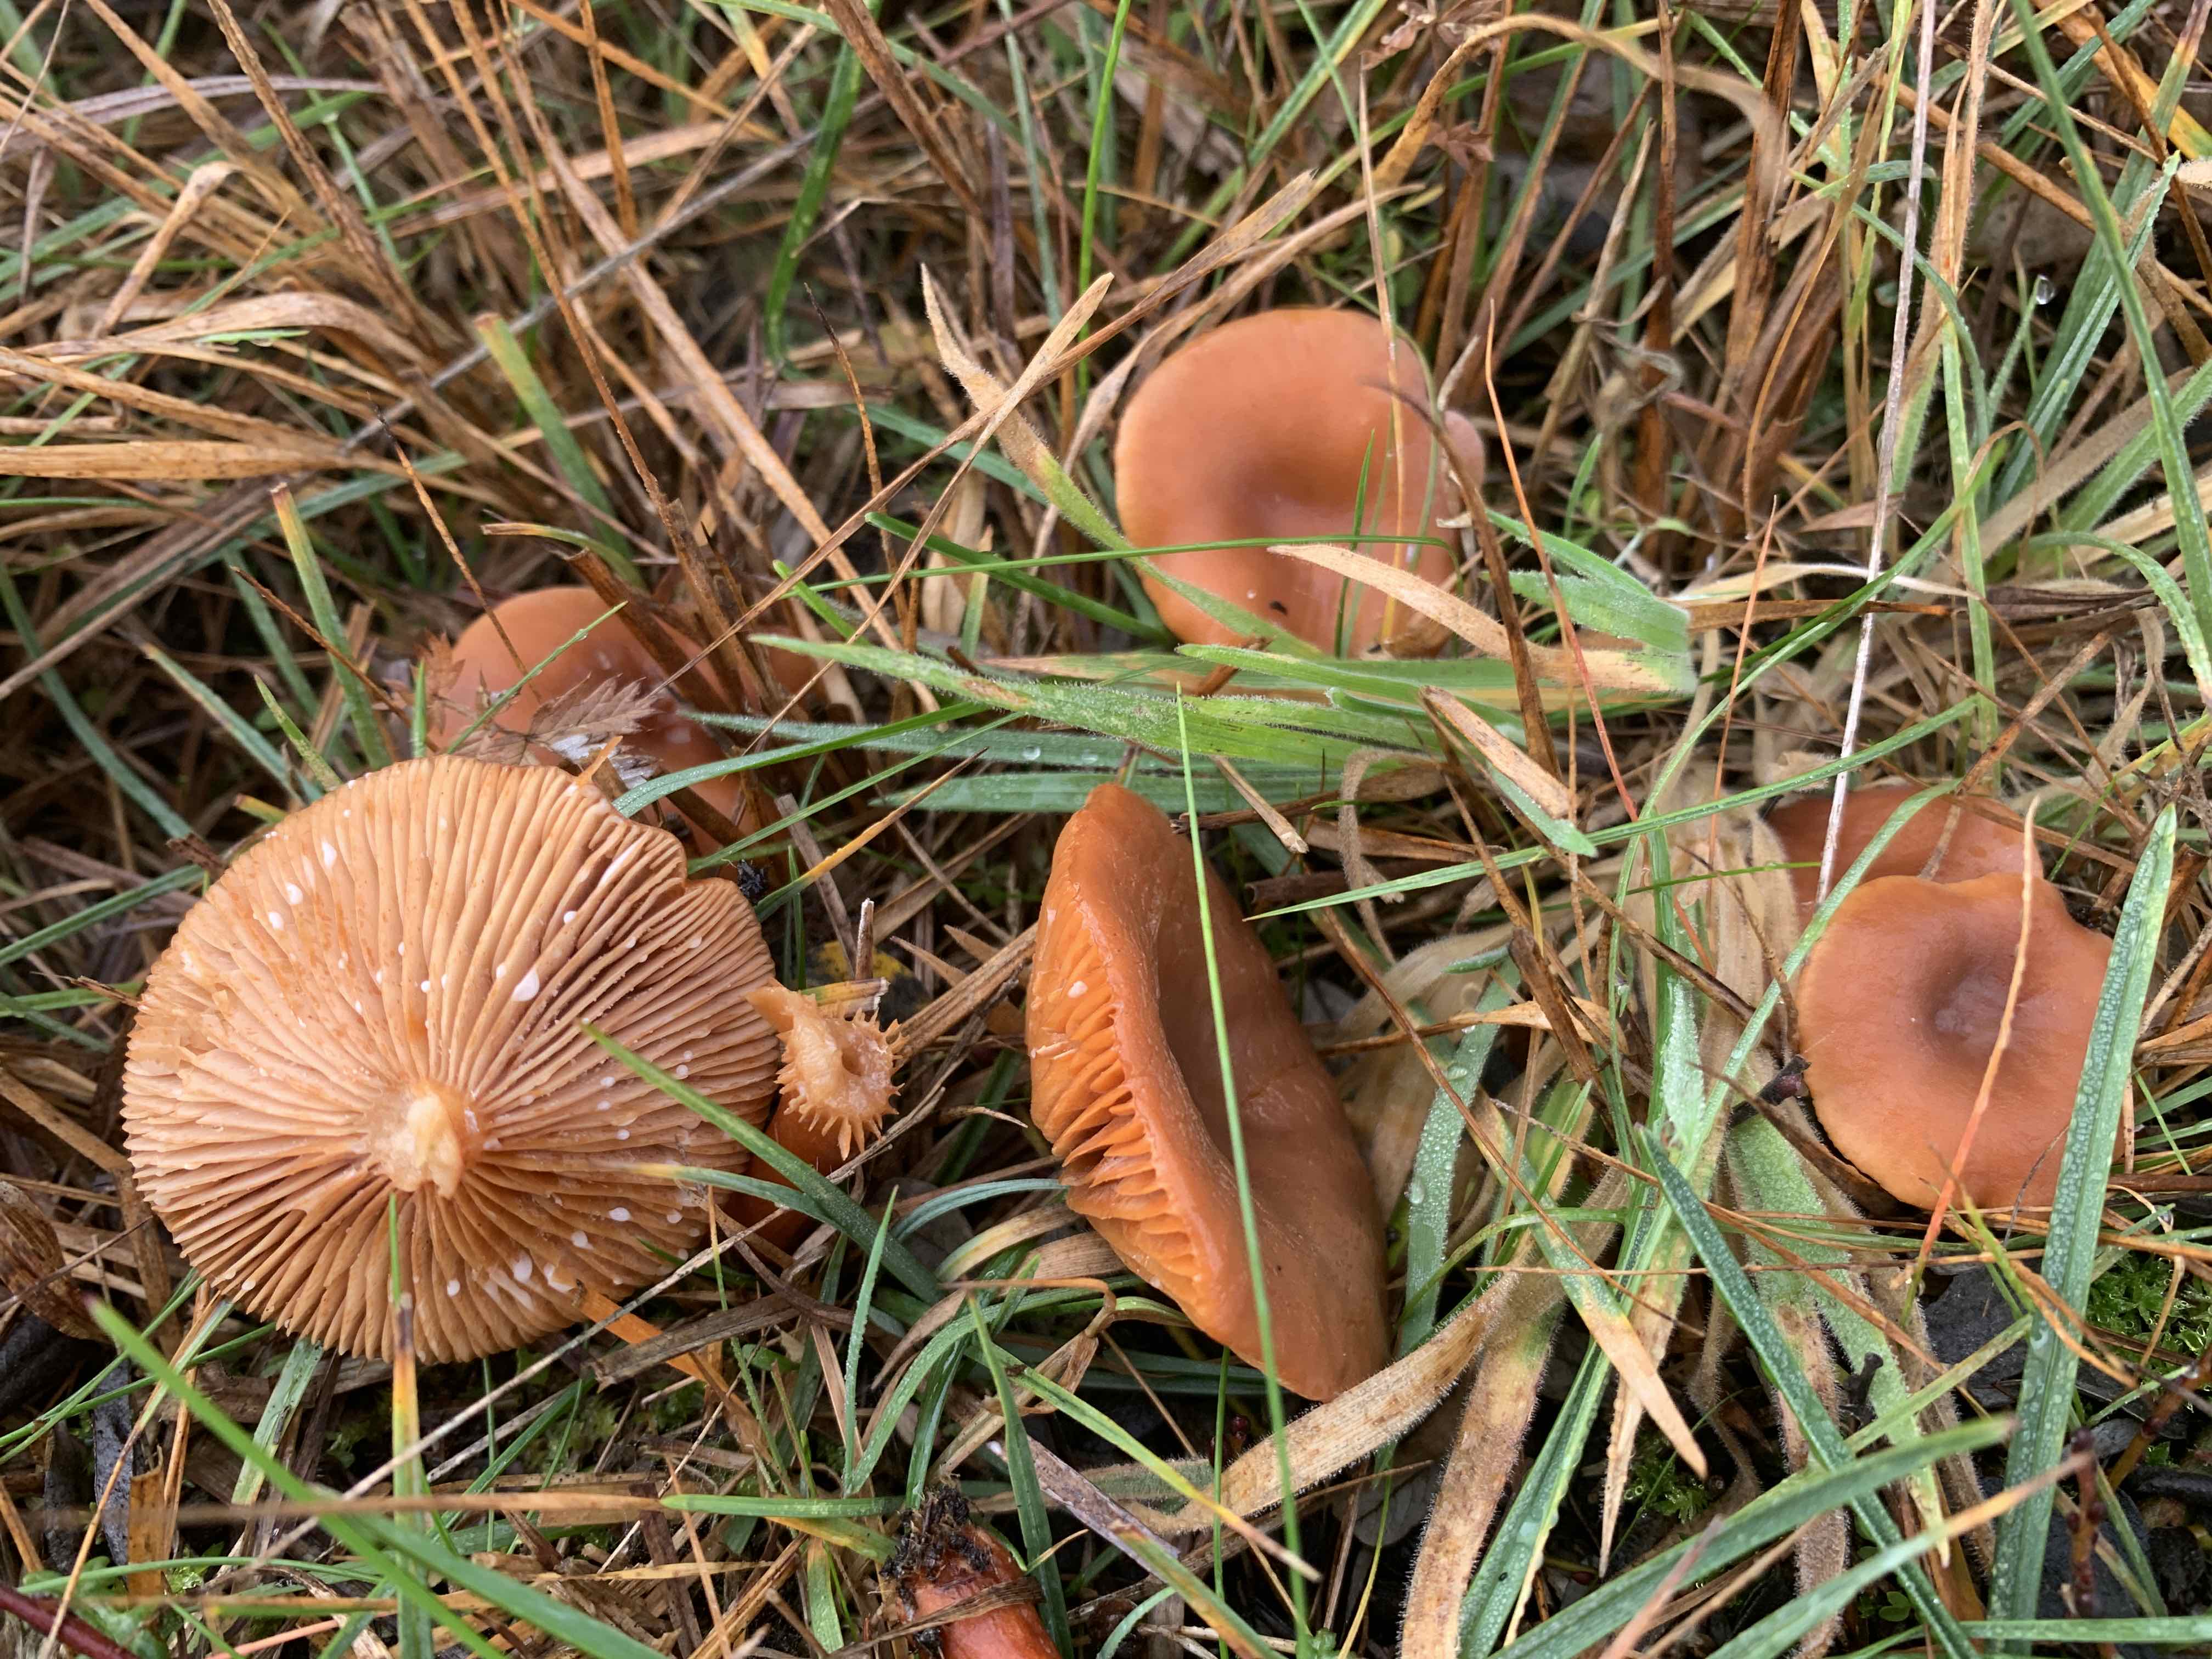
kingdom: Fungi
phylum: Basidiomycota
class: Agaricomycetes
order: Russulales
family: Russulaceae
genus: Lactarius
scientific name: Lactarius
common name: mælkehat
